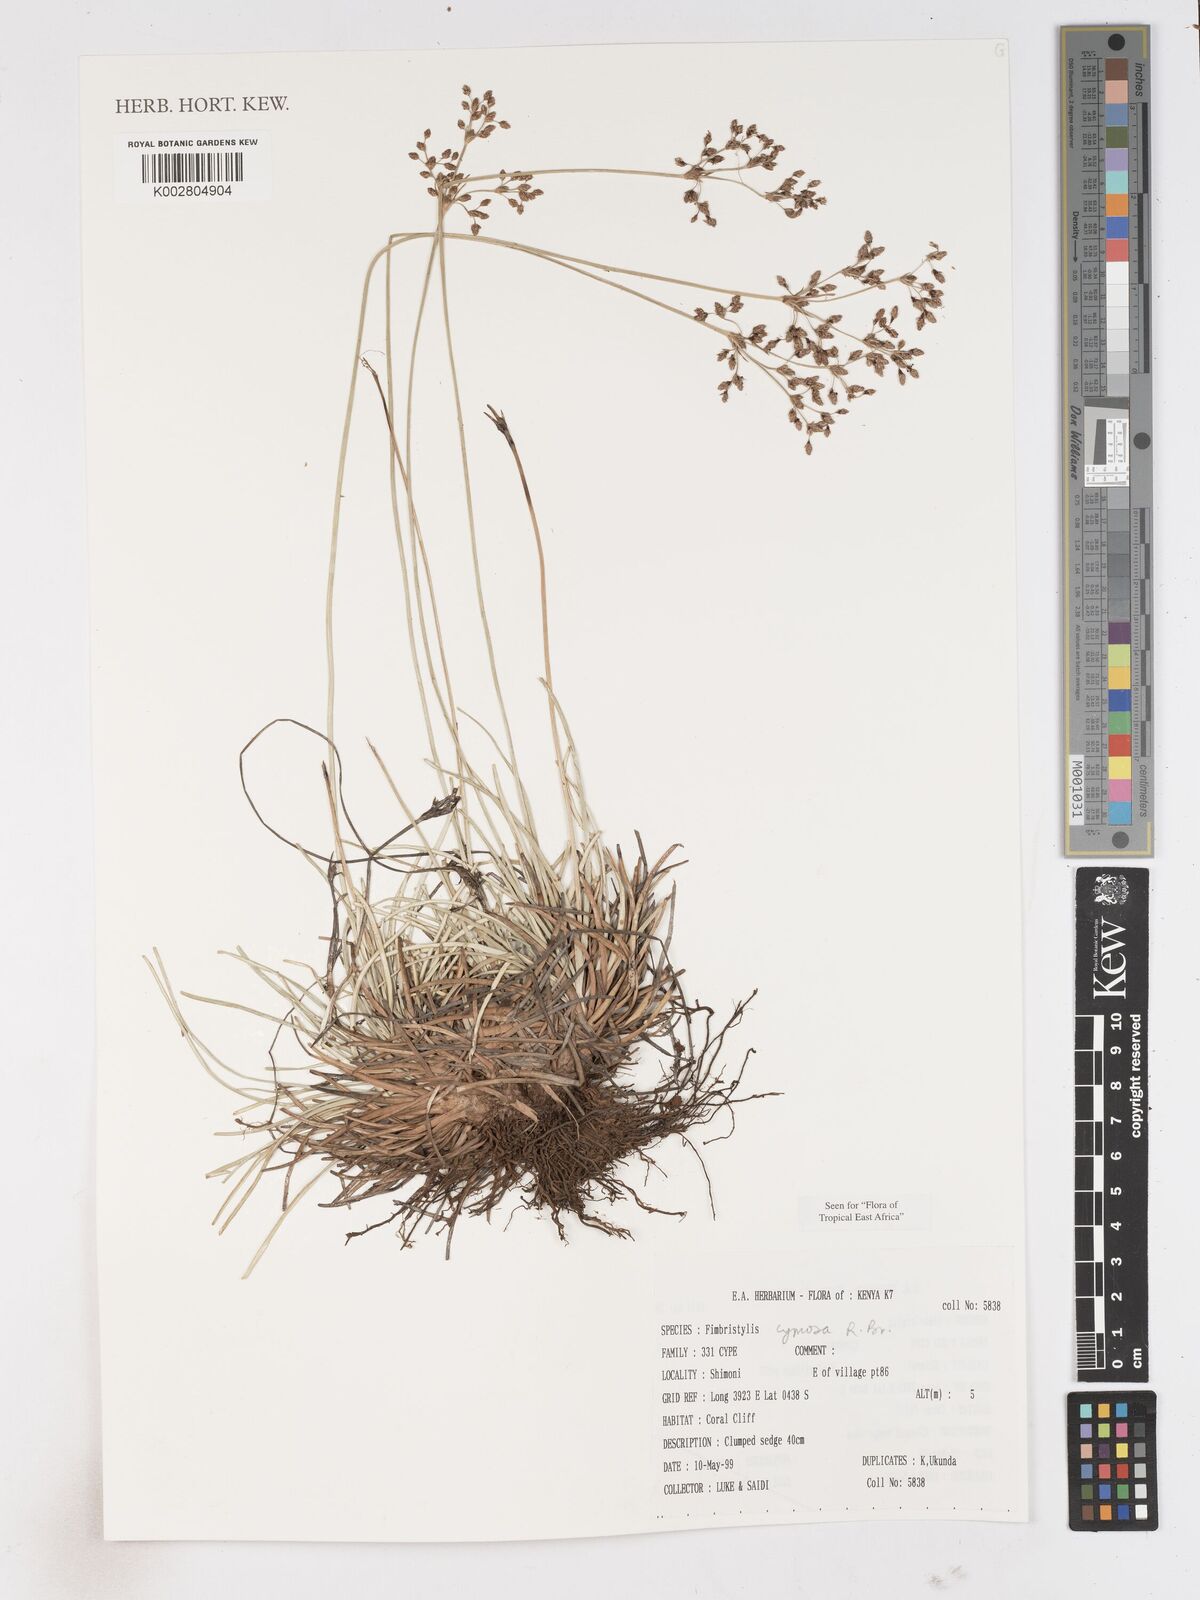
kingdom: Plantae
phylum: Tracheophyta
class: Liliopsida
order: Poales
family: Cyperaceae
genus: Fimbristylis
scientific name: Fimbristylis cymosa
